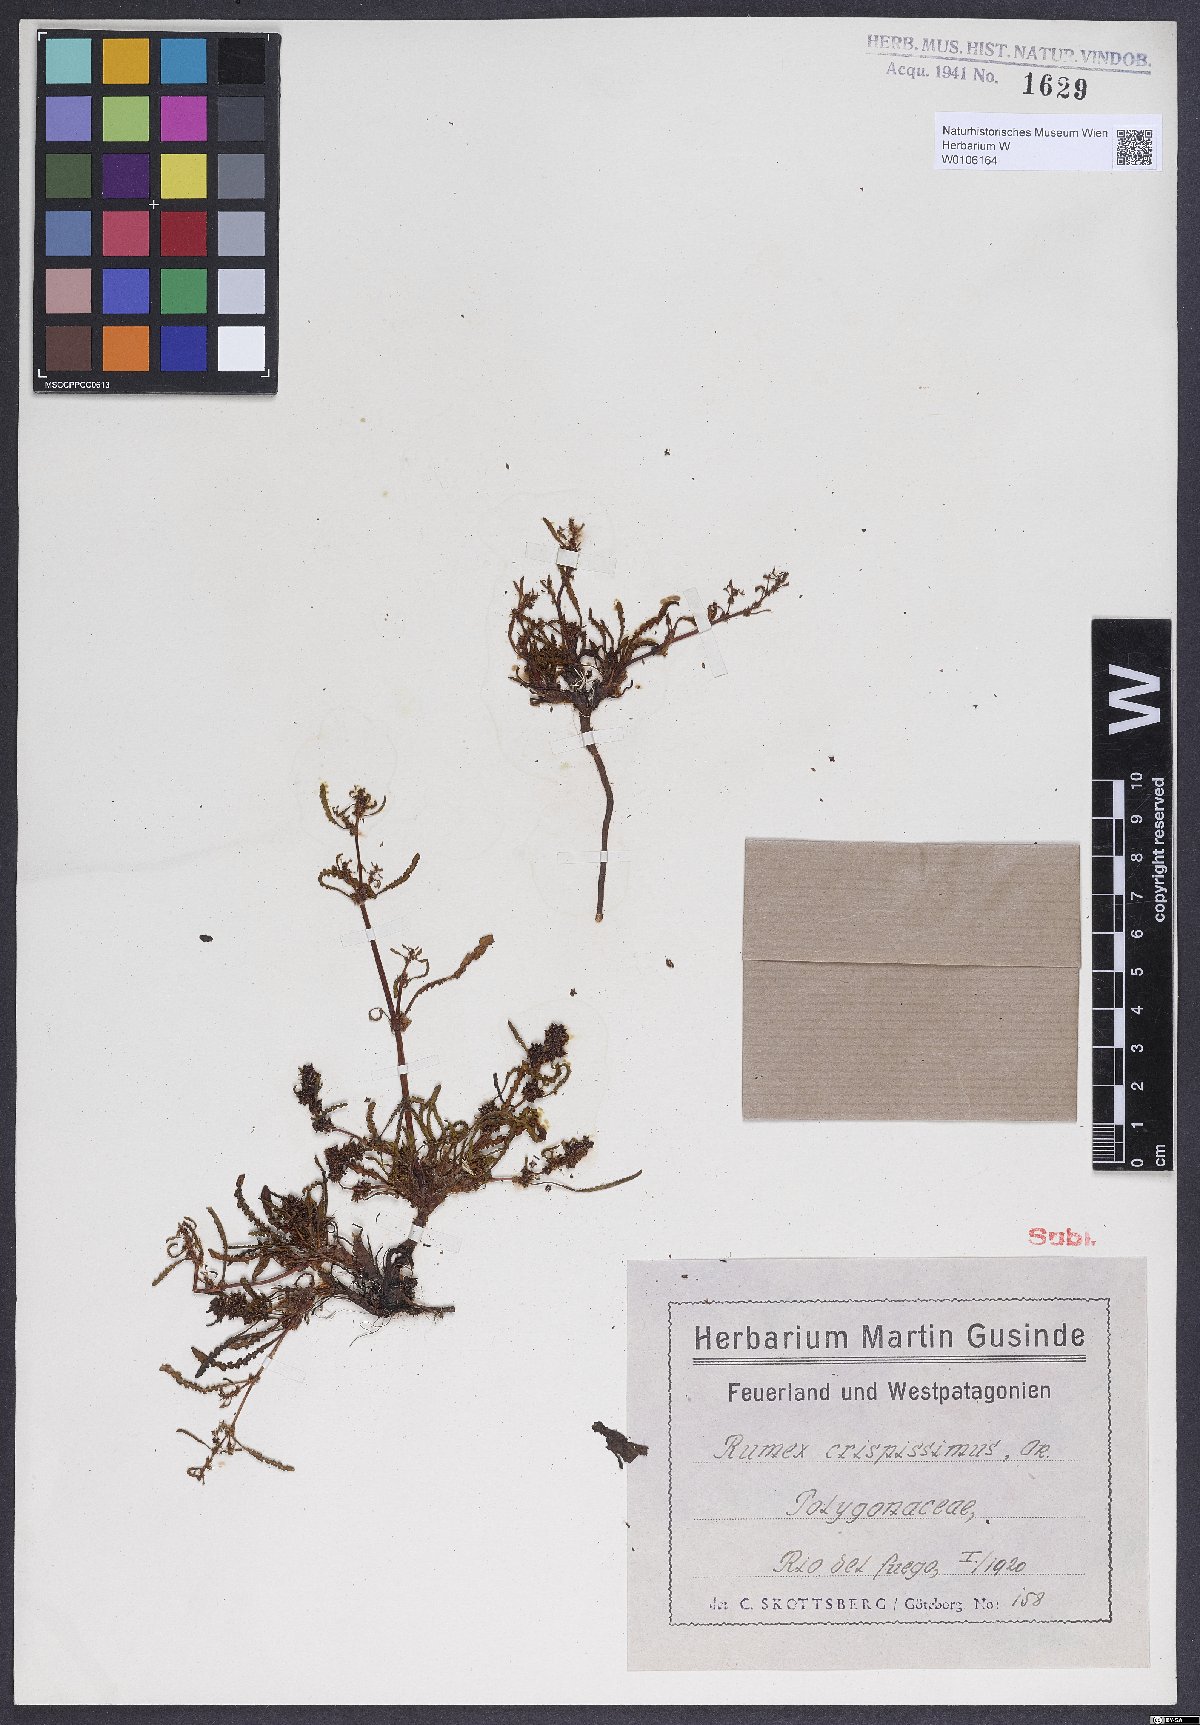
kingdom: Plantae
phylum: Tracheophyta
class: Magnoliopsida
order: Caryophyllales
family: Polygonaceae
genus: Rumex
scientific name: Rumex
